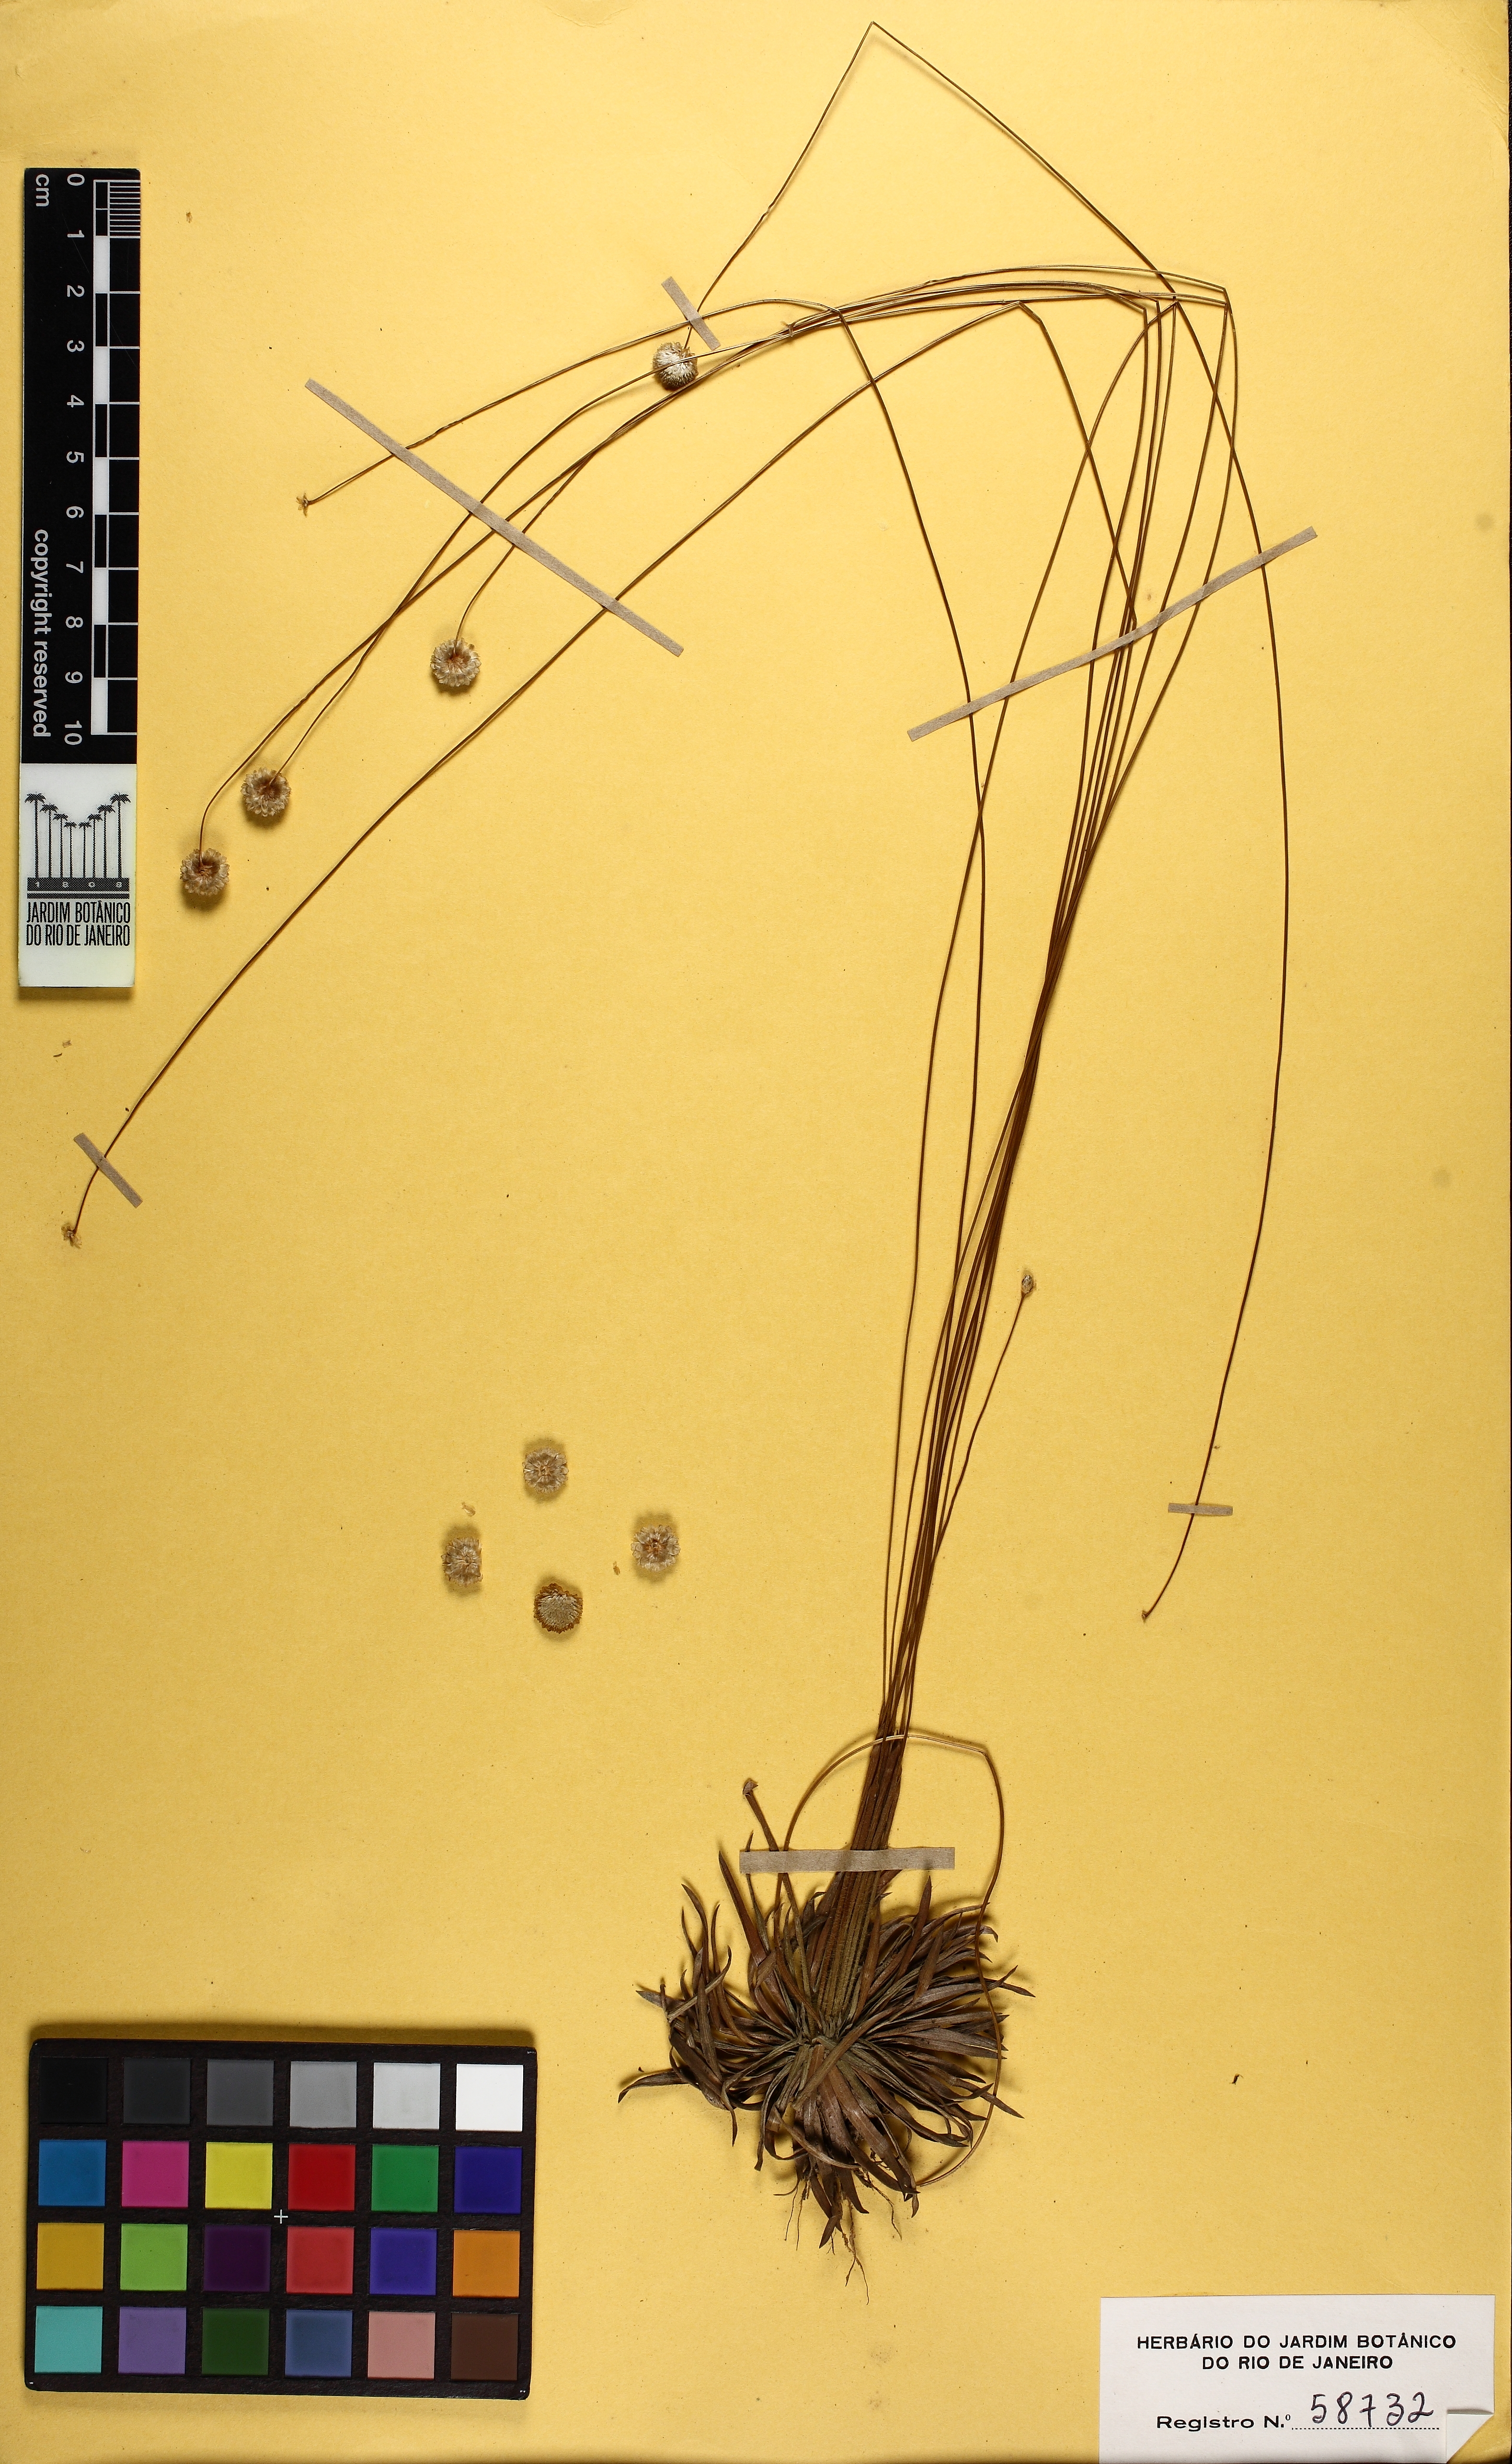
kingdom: Plantae
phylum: Tracheophyta
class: Liliopsida
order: Poales
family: Eriocaulaceae
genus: Syngonanthus
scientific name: Syngonanthus nitens
